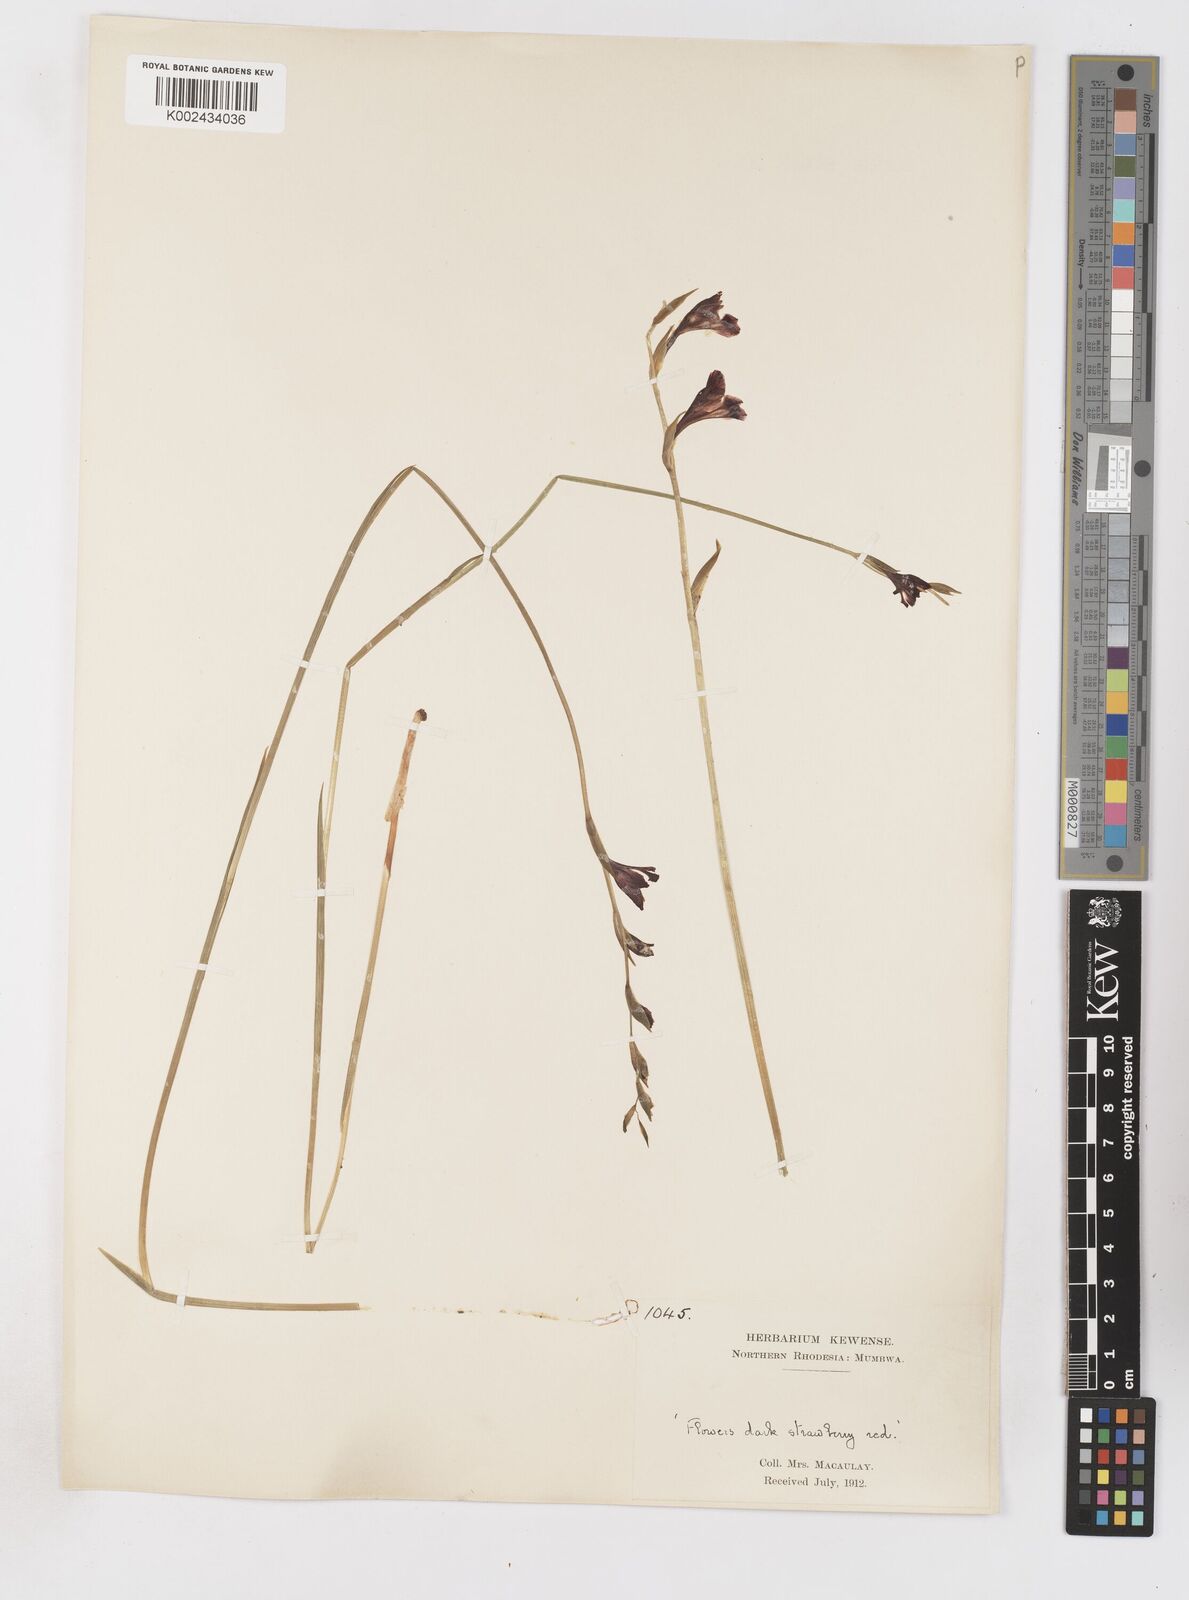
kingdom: Plantae
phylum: Tracheophyta
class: Liliopsida
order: Asparagales
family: Iridaceae
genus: Gladiolus
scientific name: Gladiolus atropurpureus
